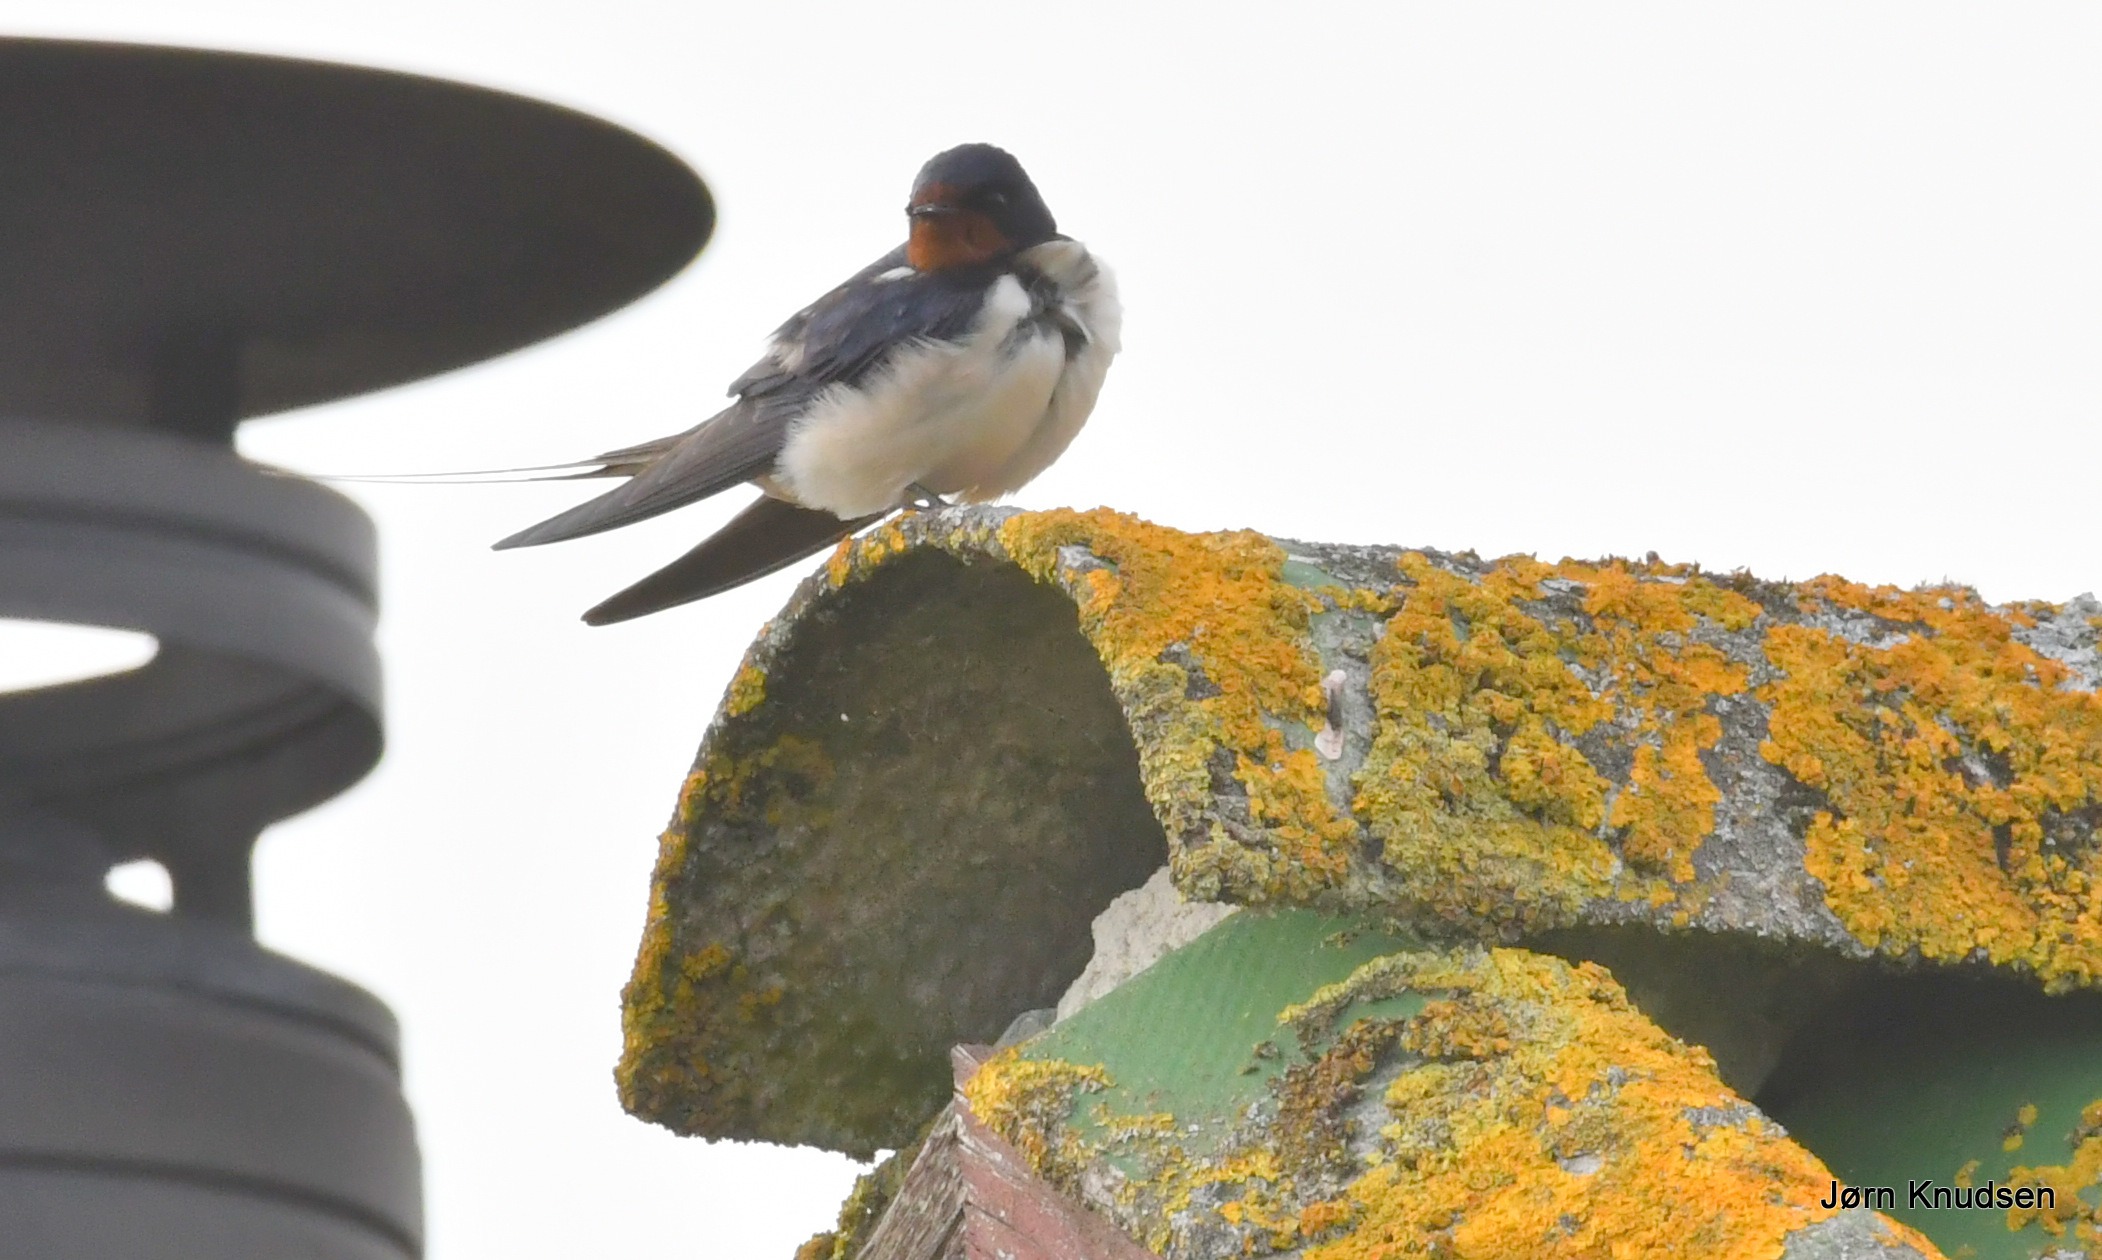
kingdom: Animalia
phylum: Chordata
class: Aves
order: Passeriformes
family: Hirundinidae
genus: Hirundo
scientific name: Hirundo rustica
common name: Landsvale
